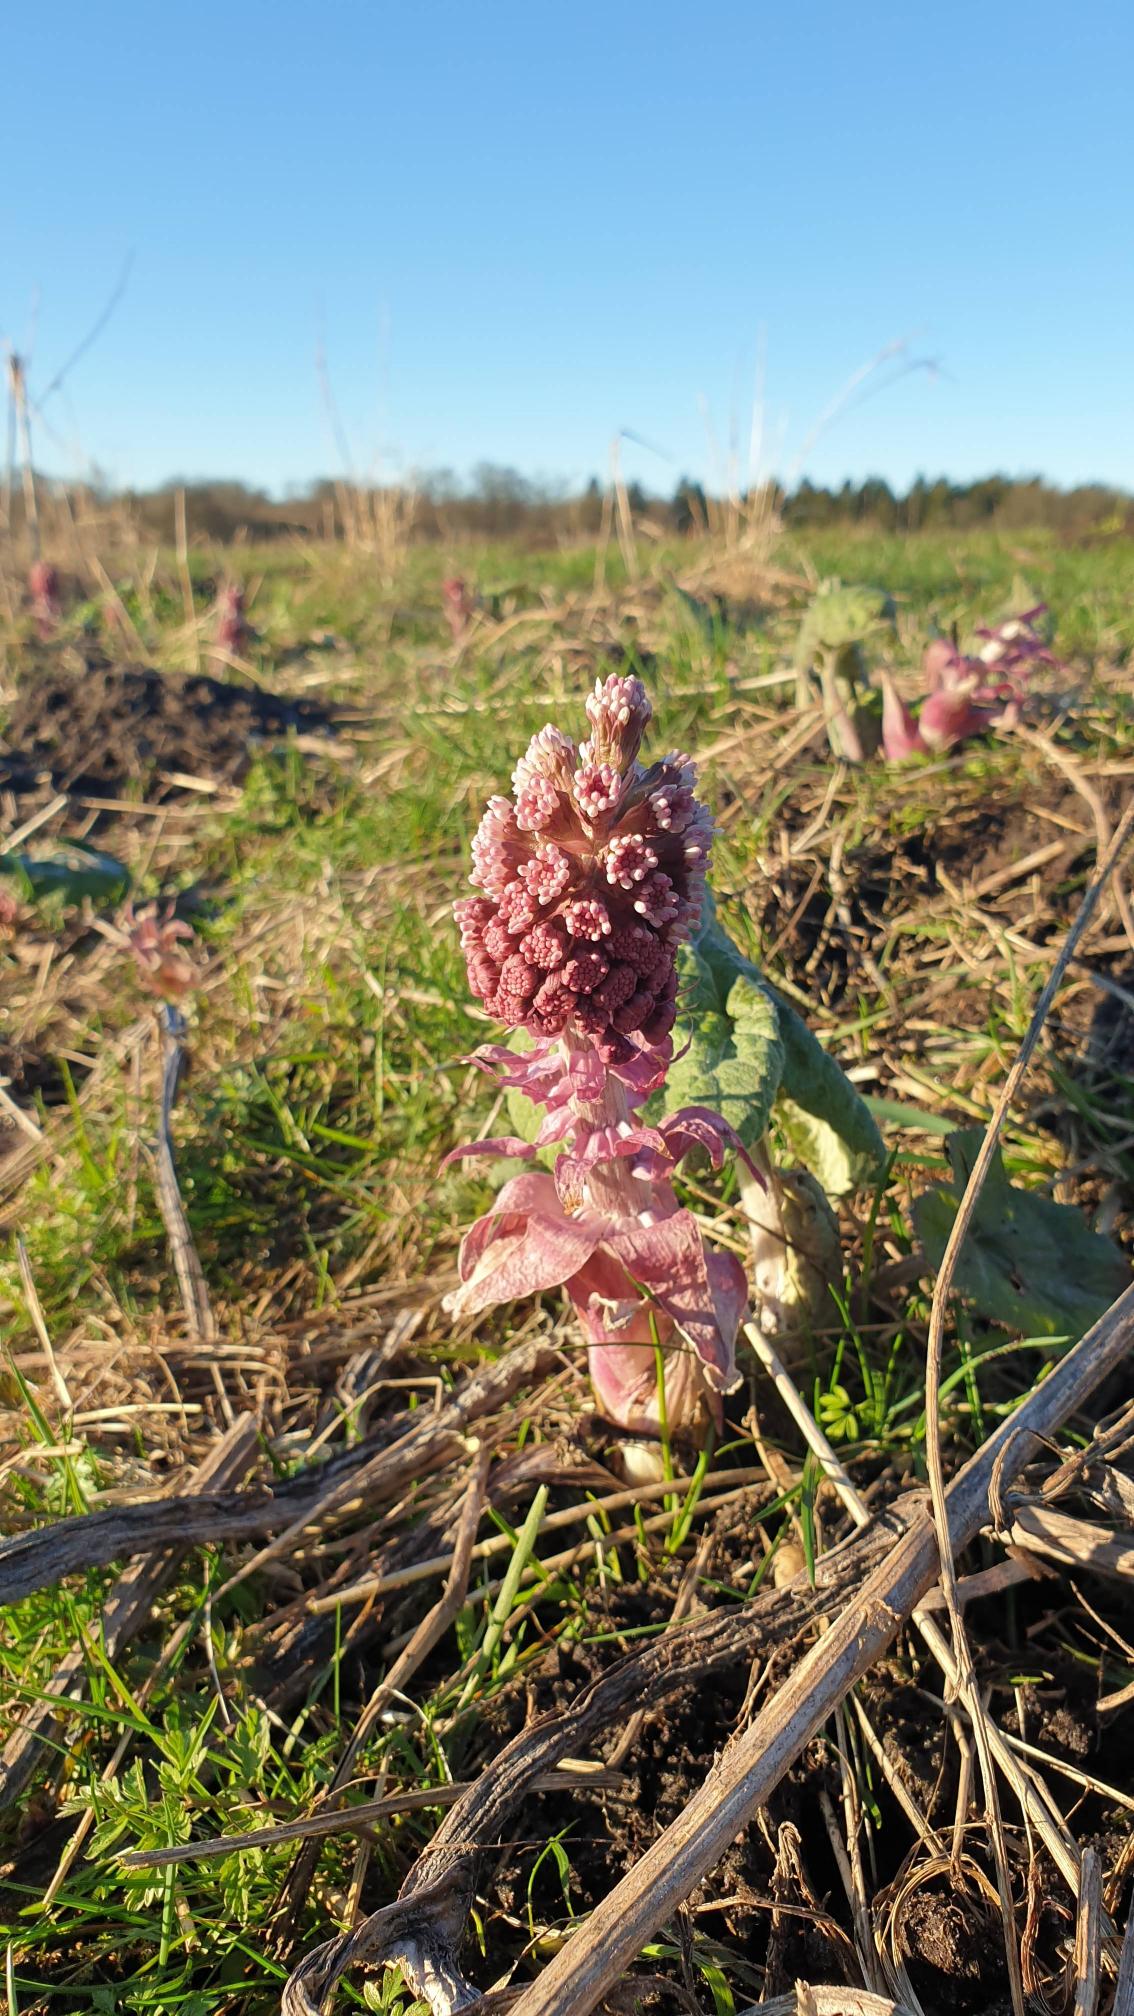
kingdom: Plantae
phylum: Tracheophyta
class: Magnoliopsida
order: Asterales
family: Asteraceae
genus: Petasites
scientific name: Petasites hybridus
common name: Rød hestehov
